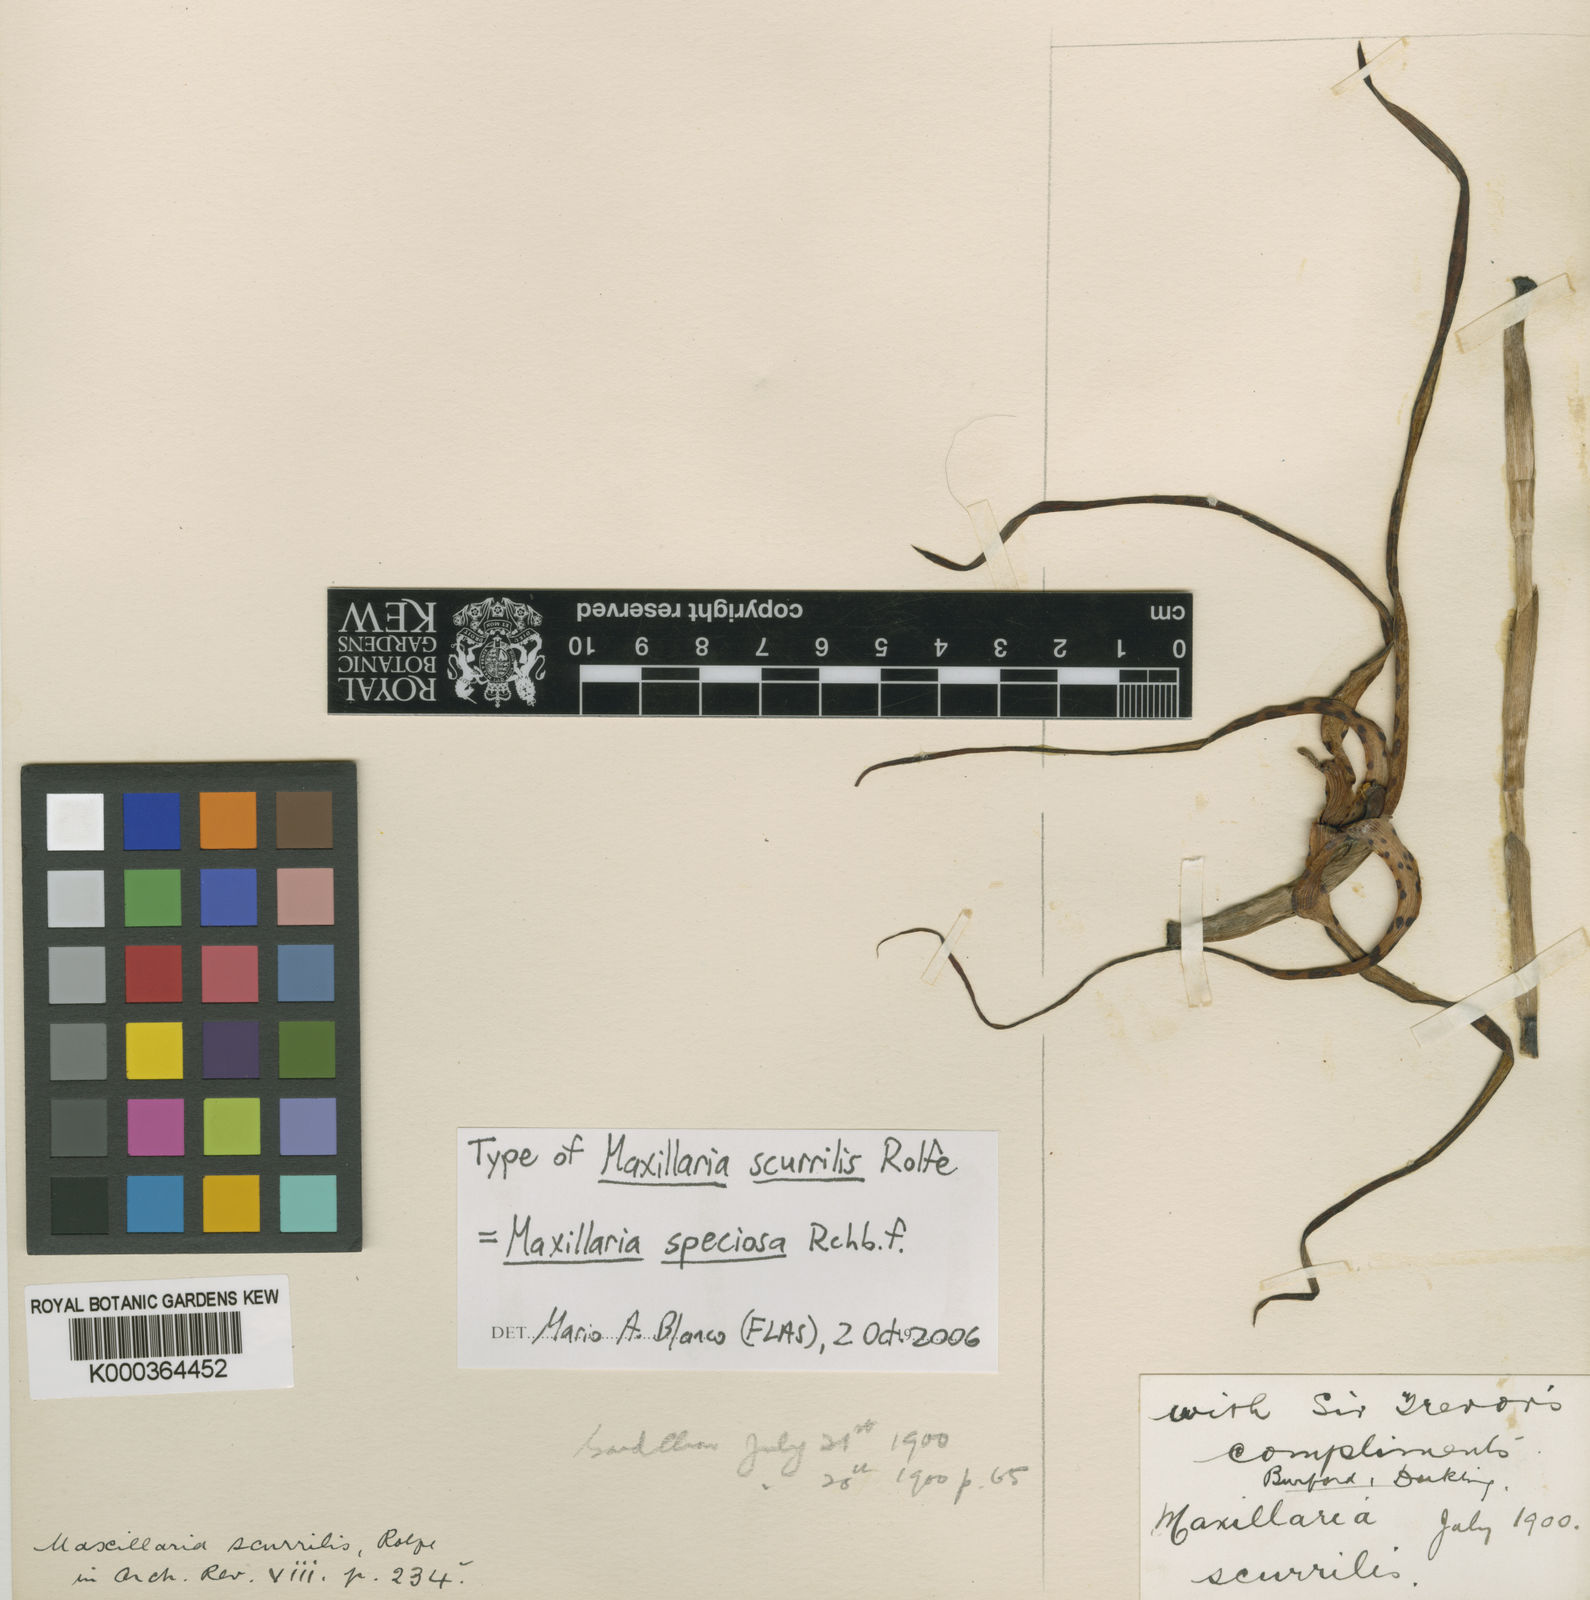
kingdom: Plantae
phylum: Tracheophyta
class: Liliopsida
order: Asparagales
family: Orchidaceae
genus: Maxillaria
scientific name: Maxillaria speciosa
